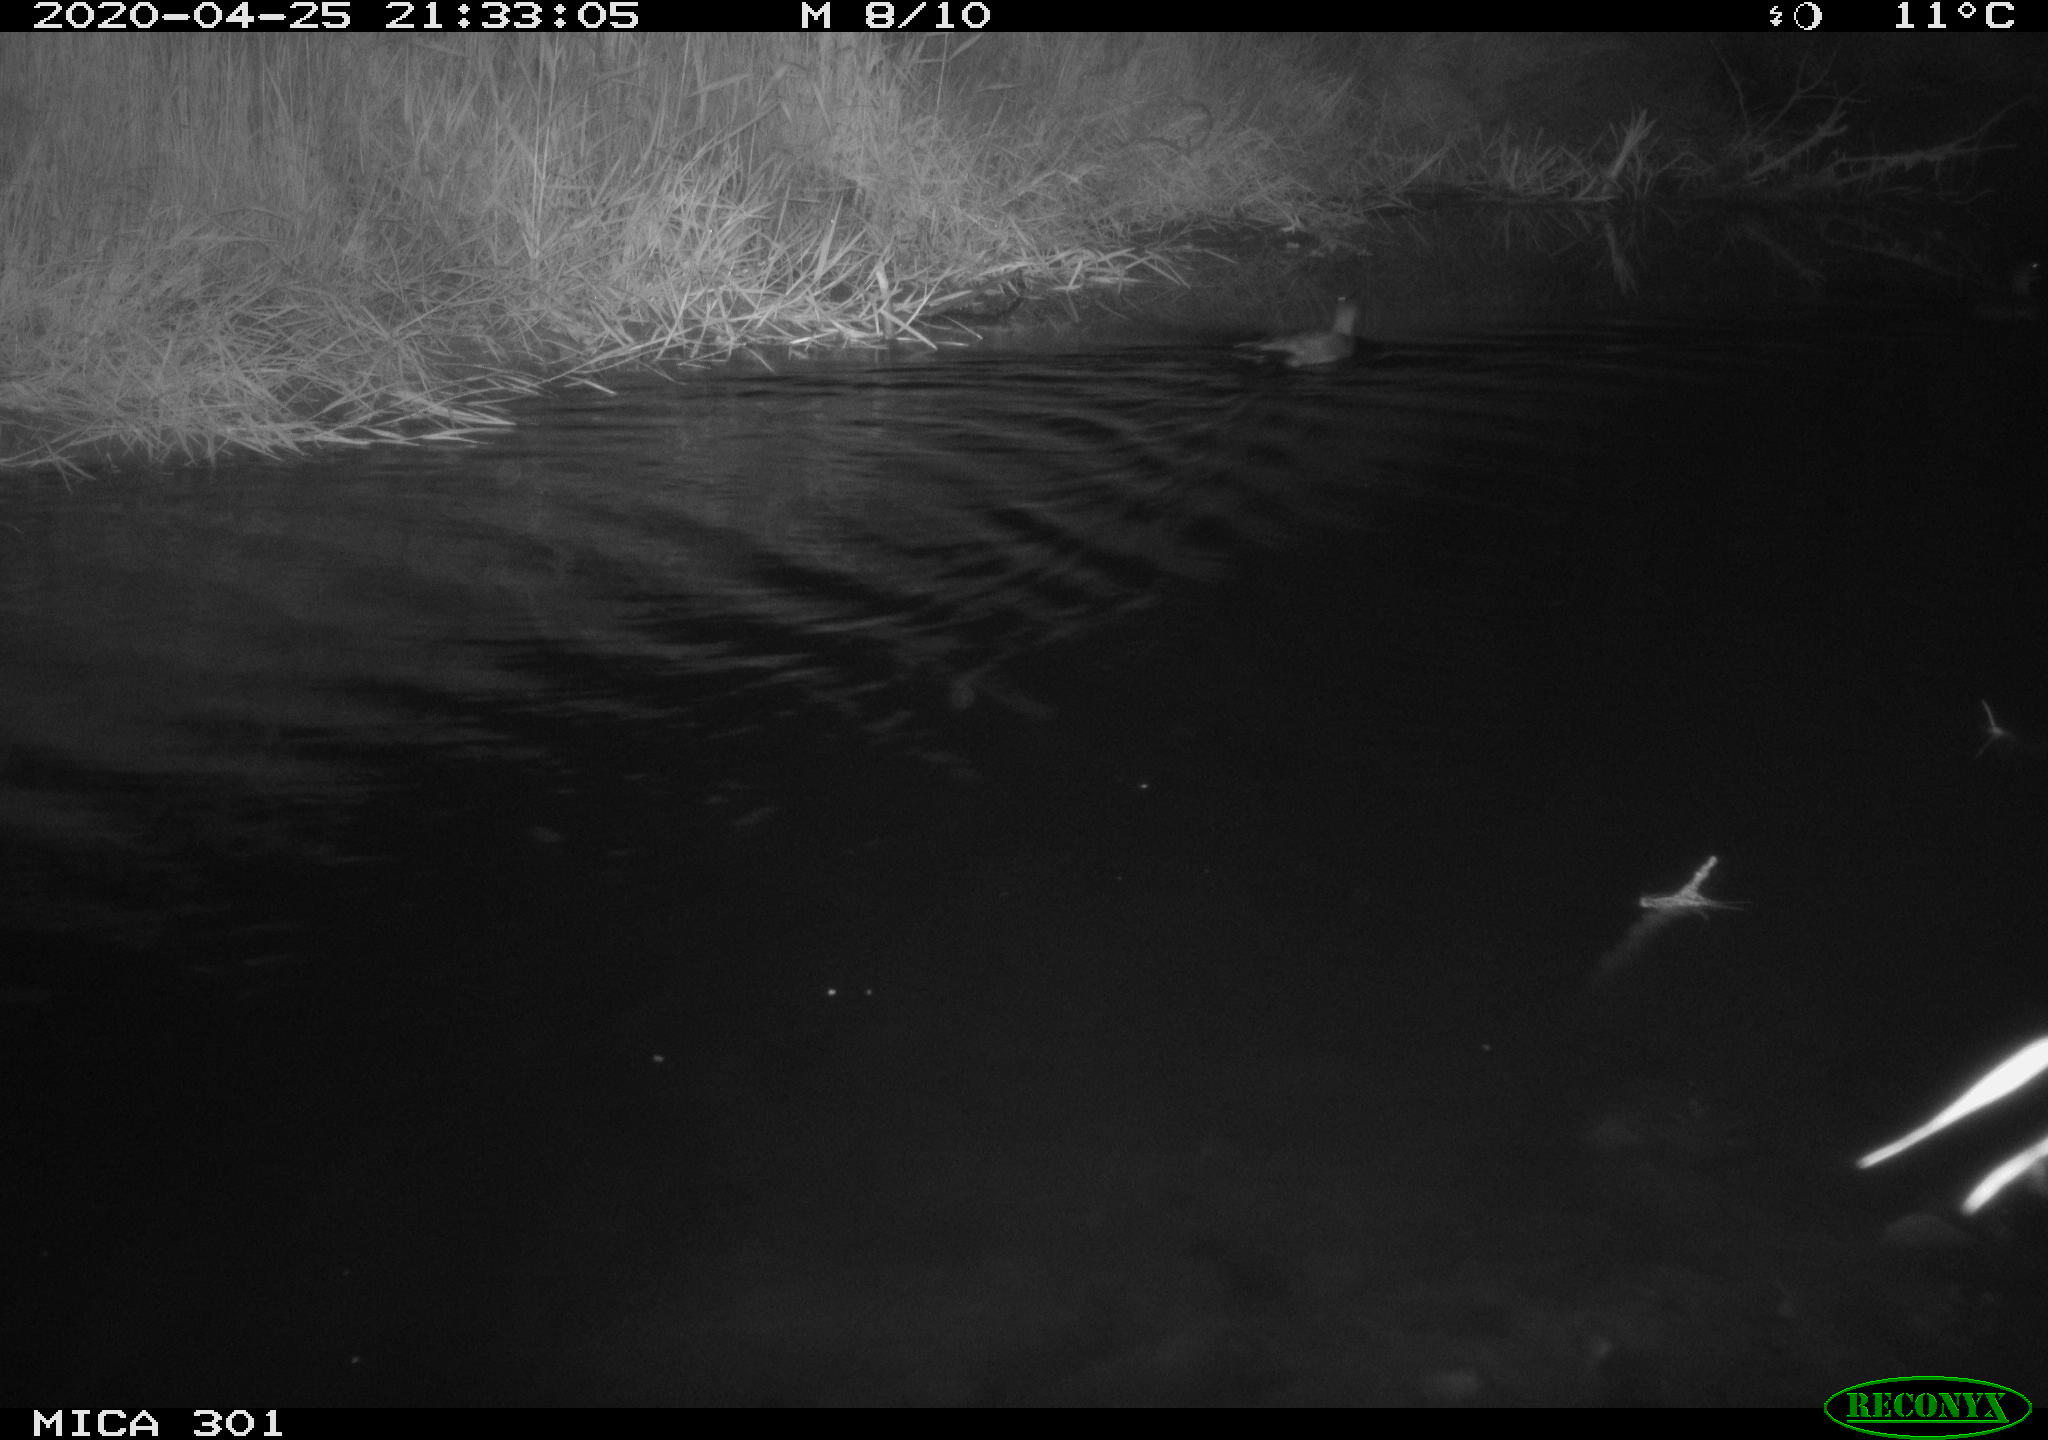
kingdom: Animalia
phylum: Chordata
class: Aves
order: Anseriformes
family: Anatidae
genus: Mareca
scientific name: Mareca strepera
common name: Gadwall
